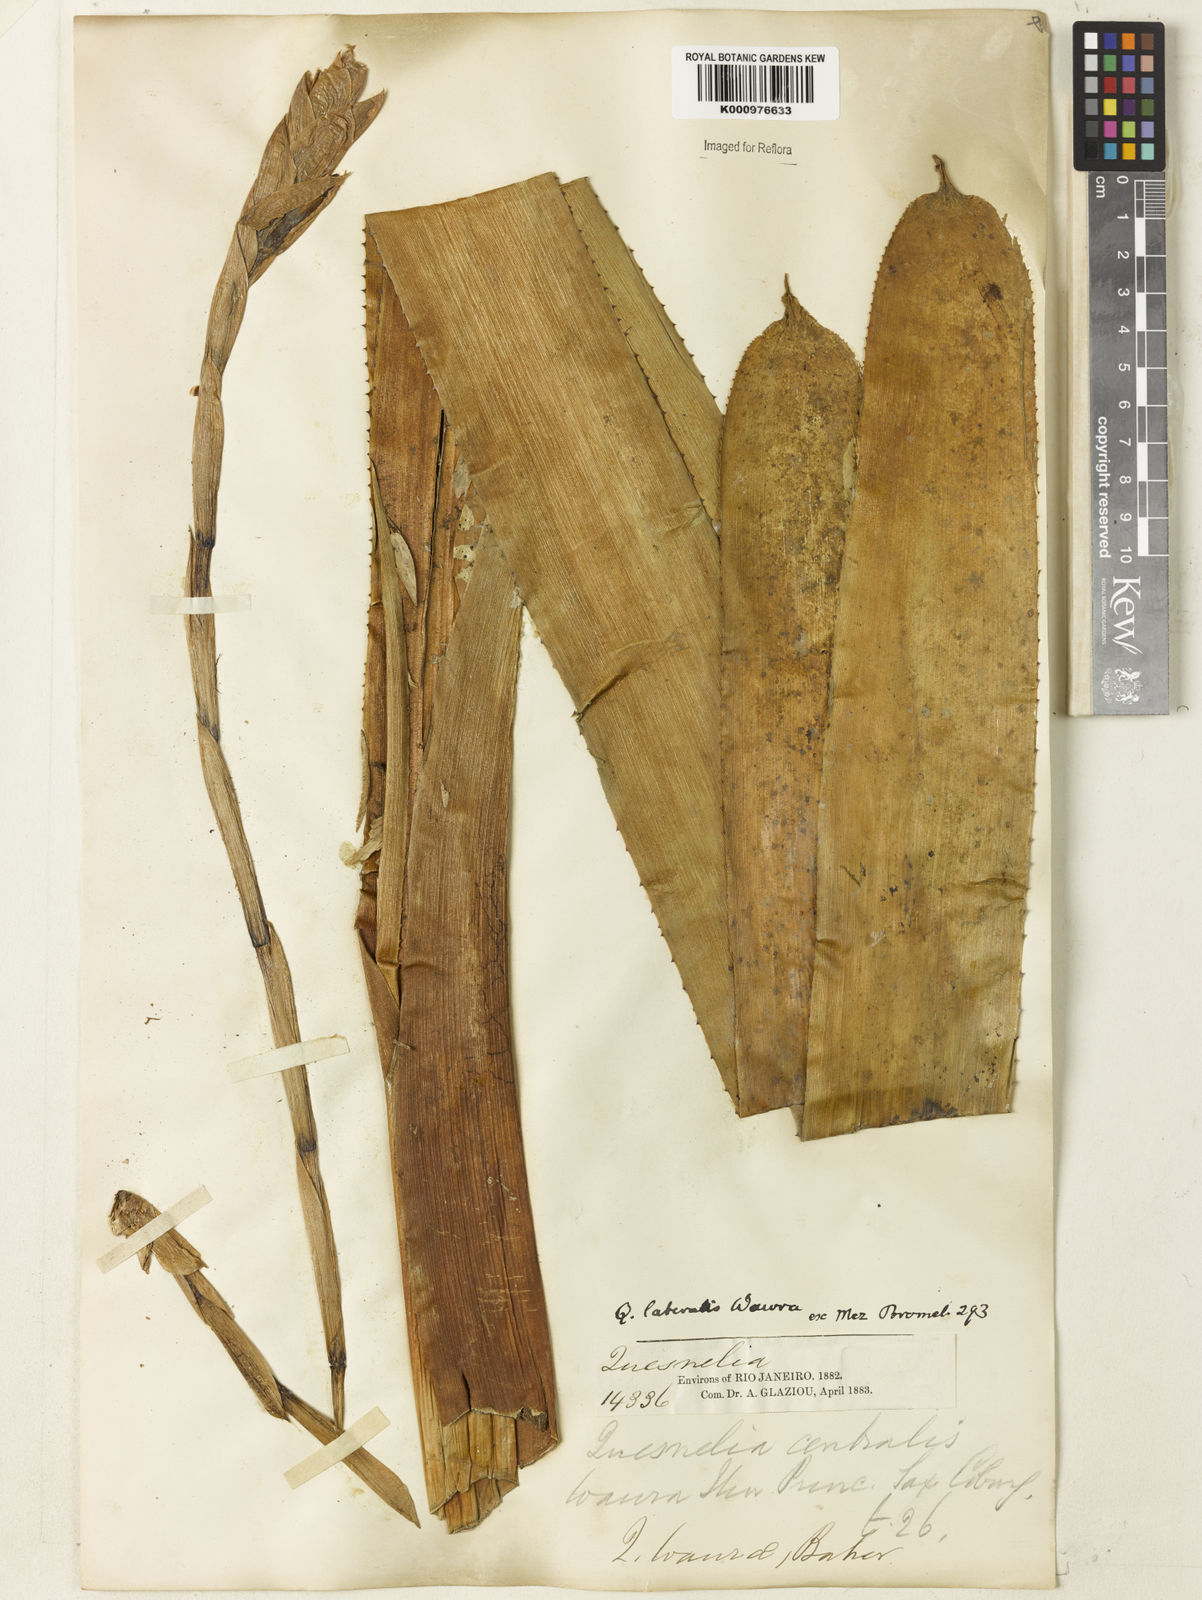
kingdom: Plantae
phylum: Tracheophyta
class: Liliopsida
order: Poales
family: Bromeliaceae
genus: Quesnelia
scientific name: Quesnelia lateralis
